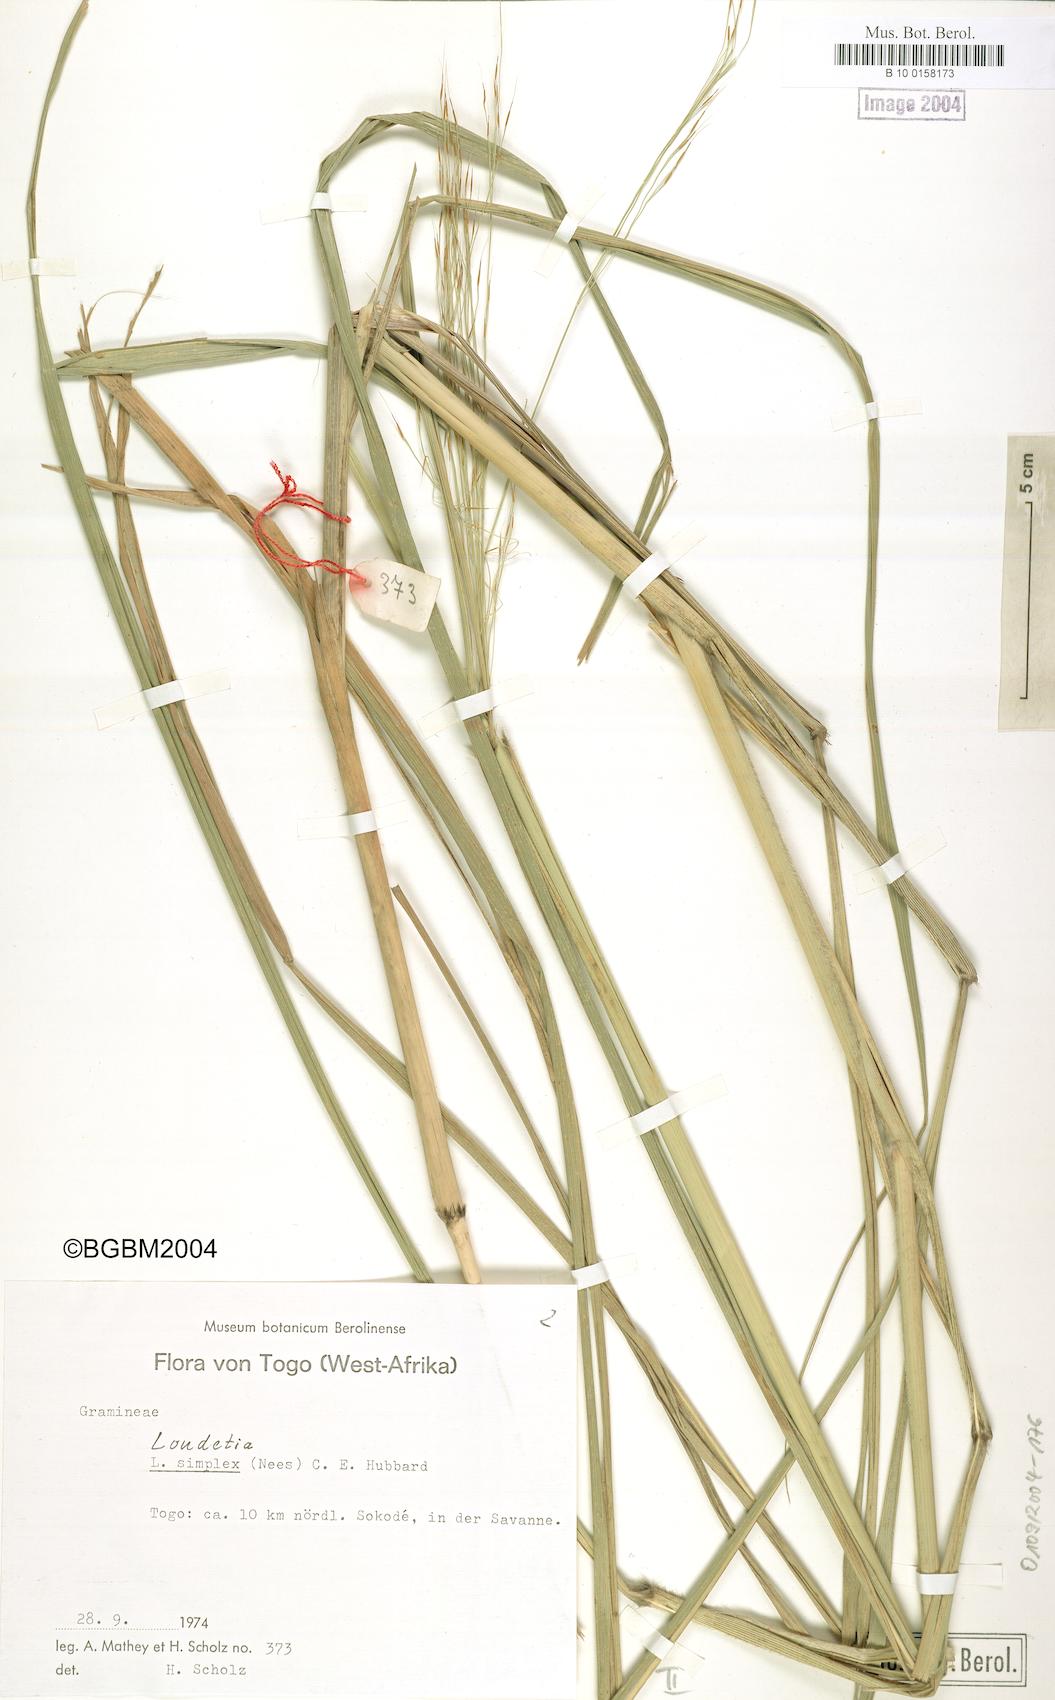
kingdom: Plantae
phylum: Tracheophyta
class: Liliopsida
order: Poales
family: Poaceae
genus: Loudetia
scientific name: Loudetia simplex
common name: Common russet grass
